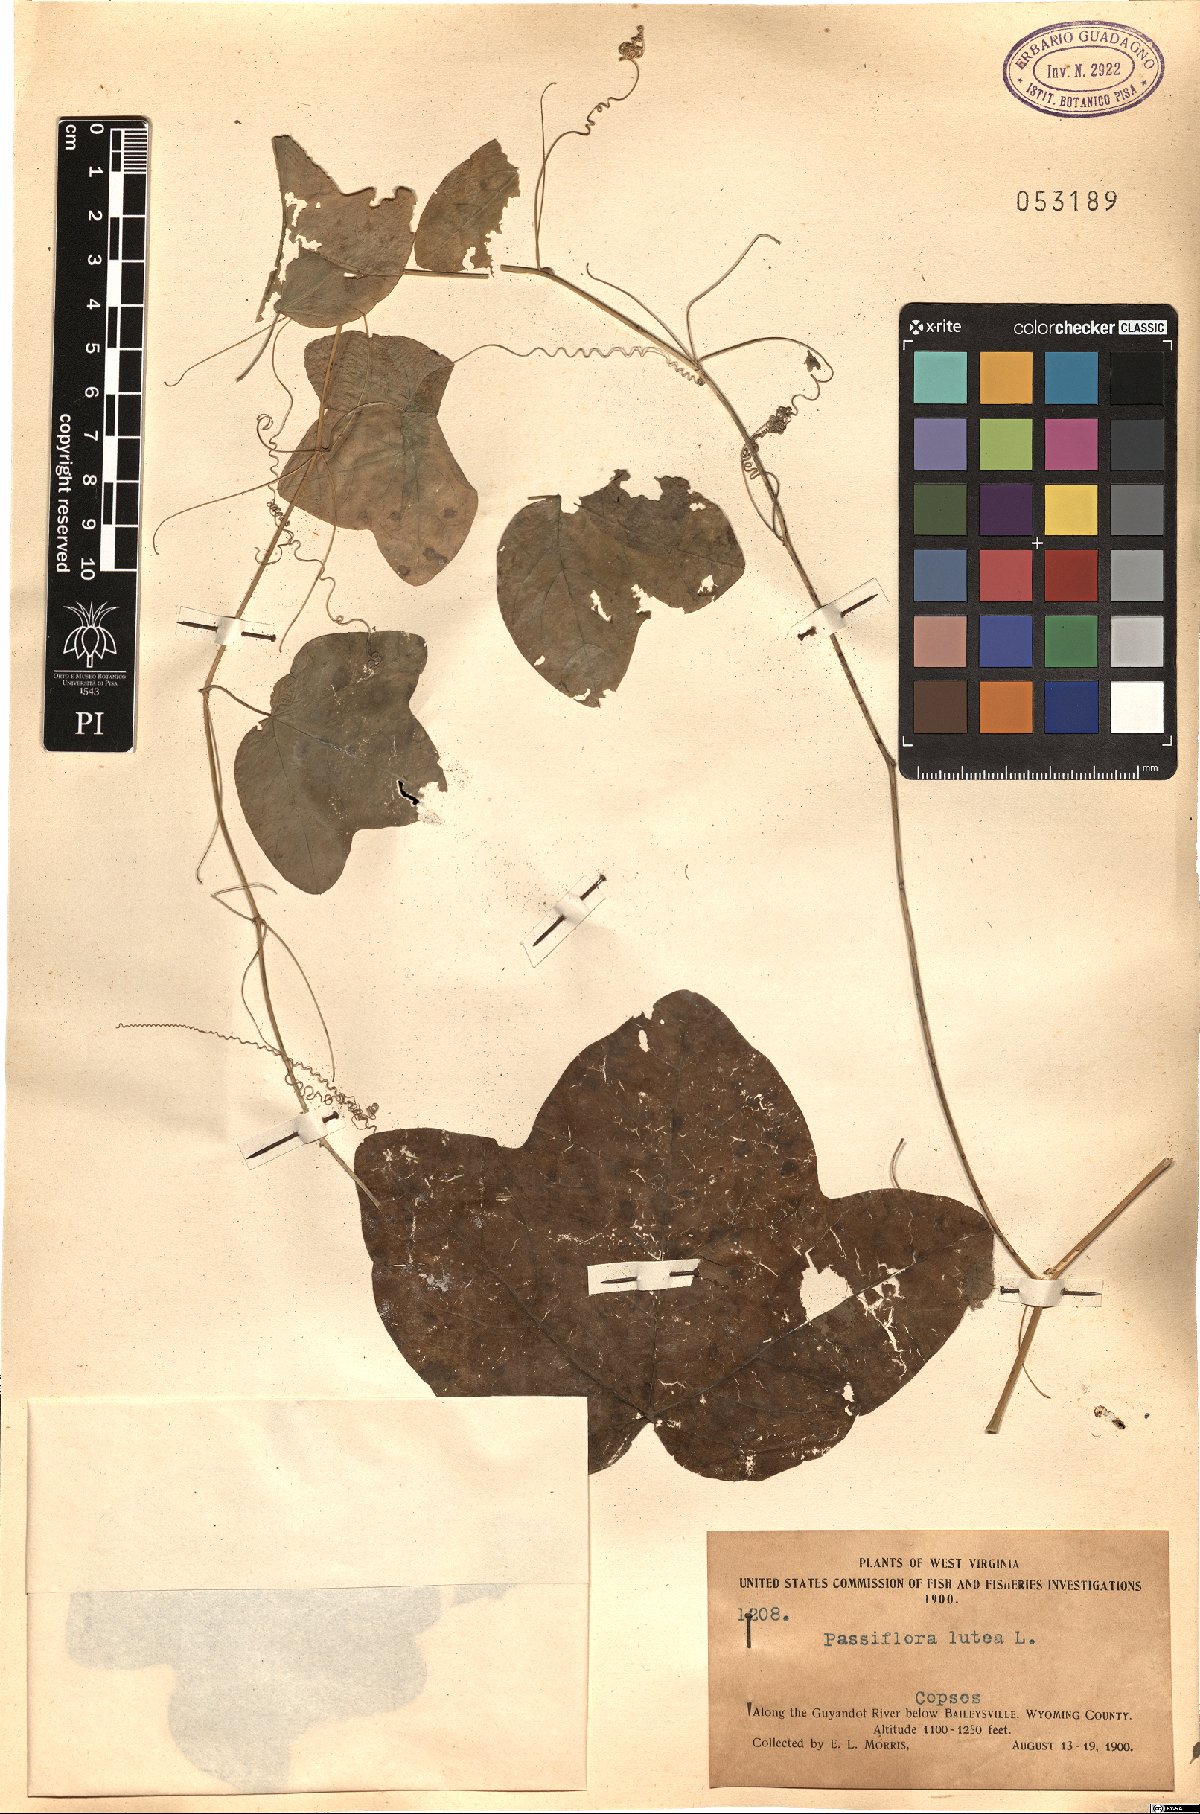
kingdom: Plantae
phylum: Tracheophyta
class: Magnoliopsida
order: Malpighiales
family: Passifloraceae
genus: Passiflora
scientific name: Passiflora lutea
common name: Yellow passionflower
